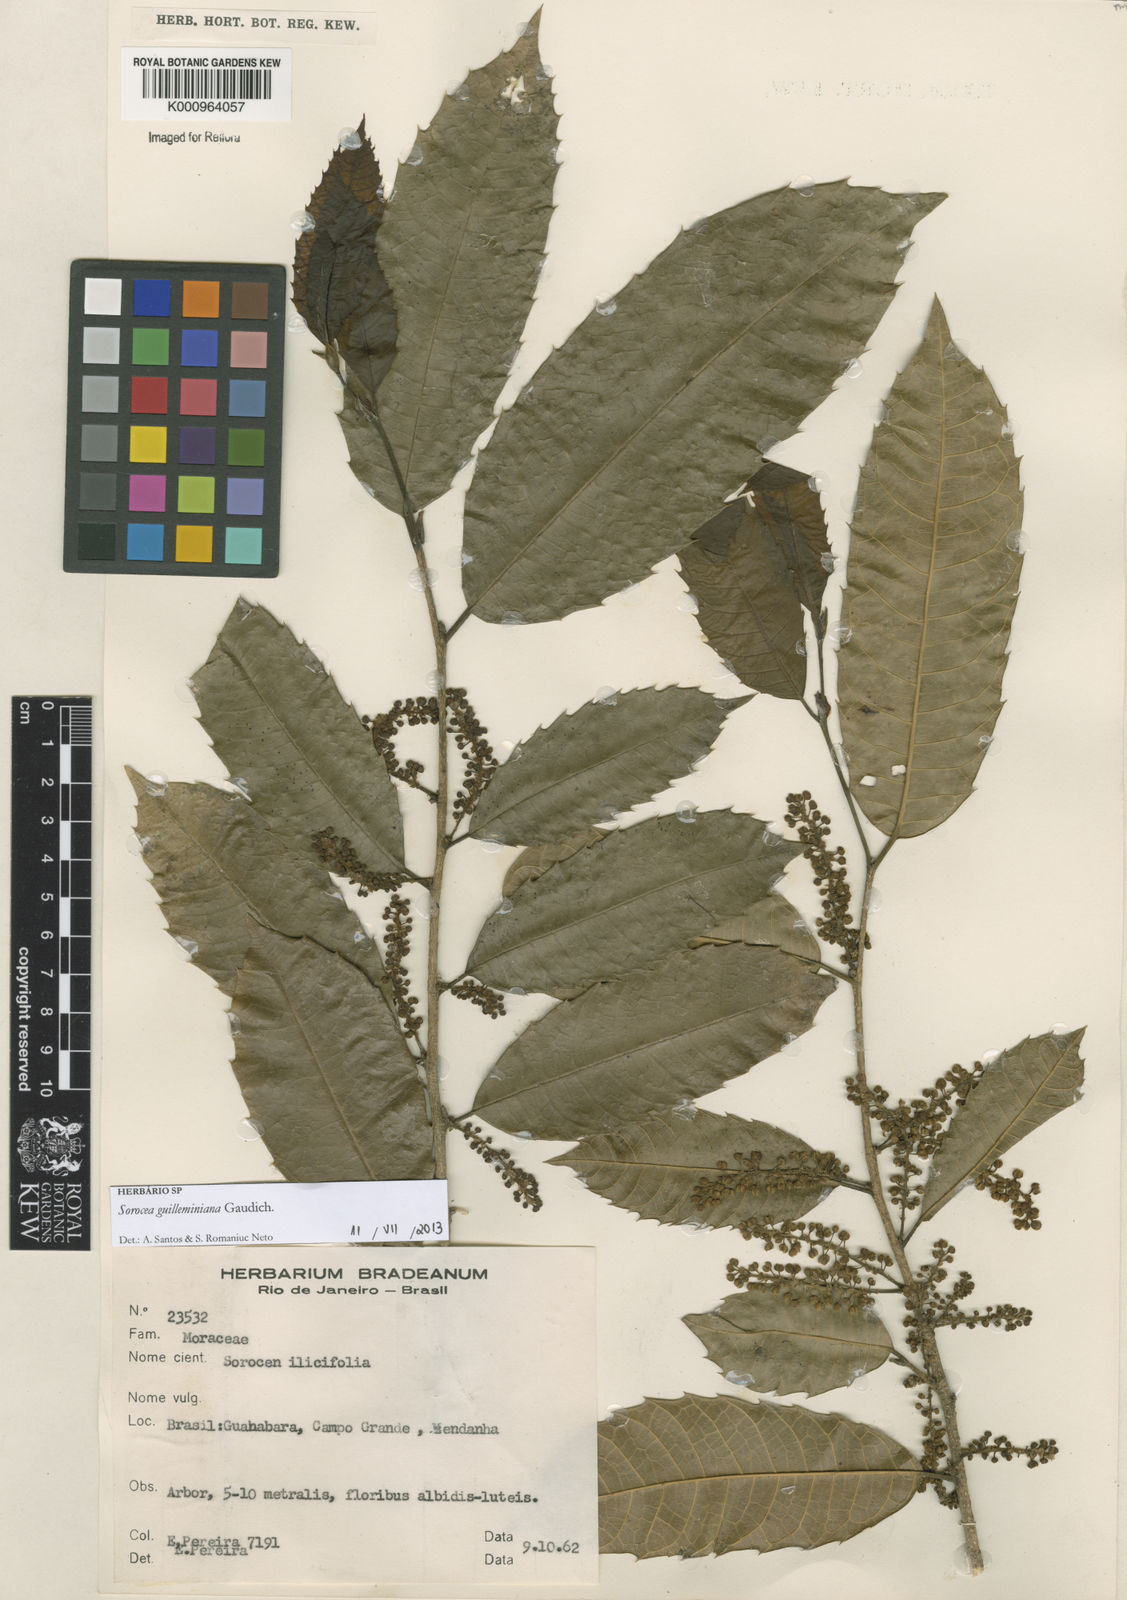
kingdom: Plantae
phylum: Tracheophyta
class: Magnoliopsida
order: Rosales
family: Moraceae
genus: Sorocea
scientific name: Sorocea guilleminiana
